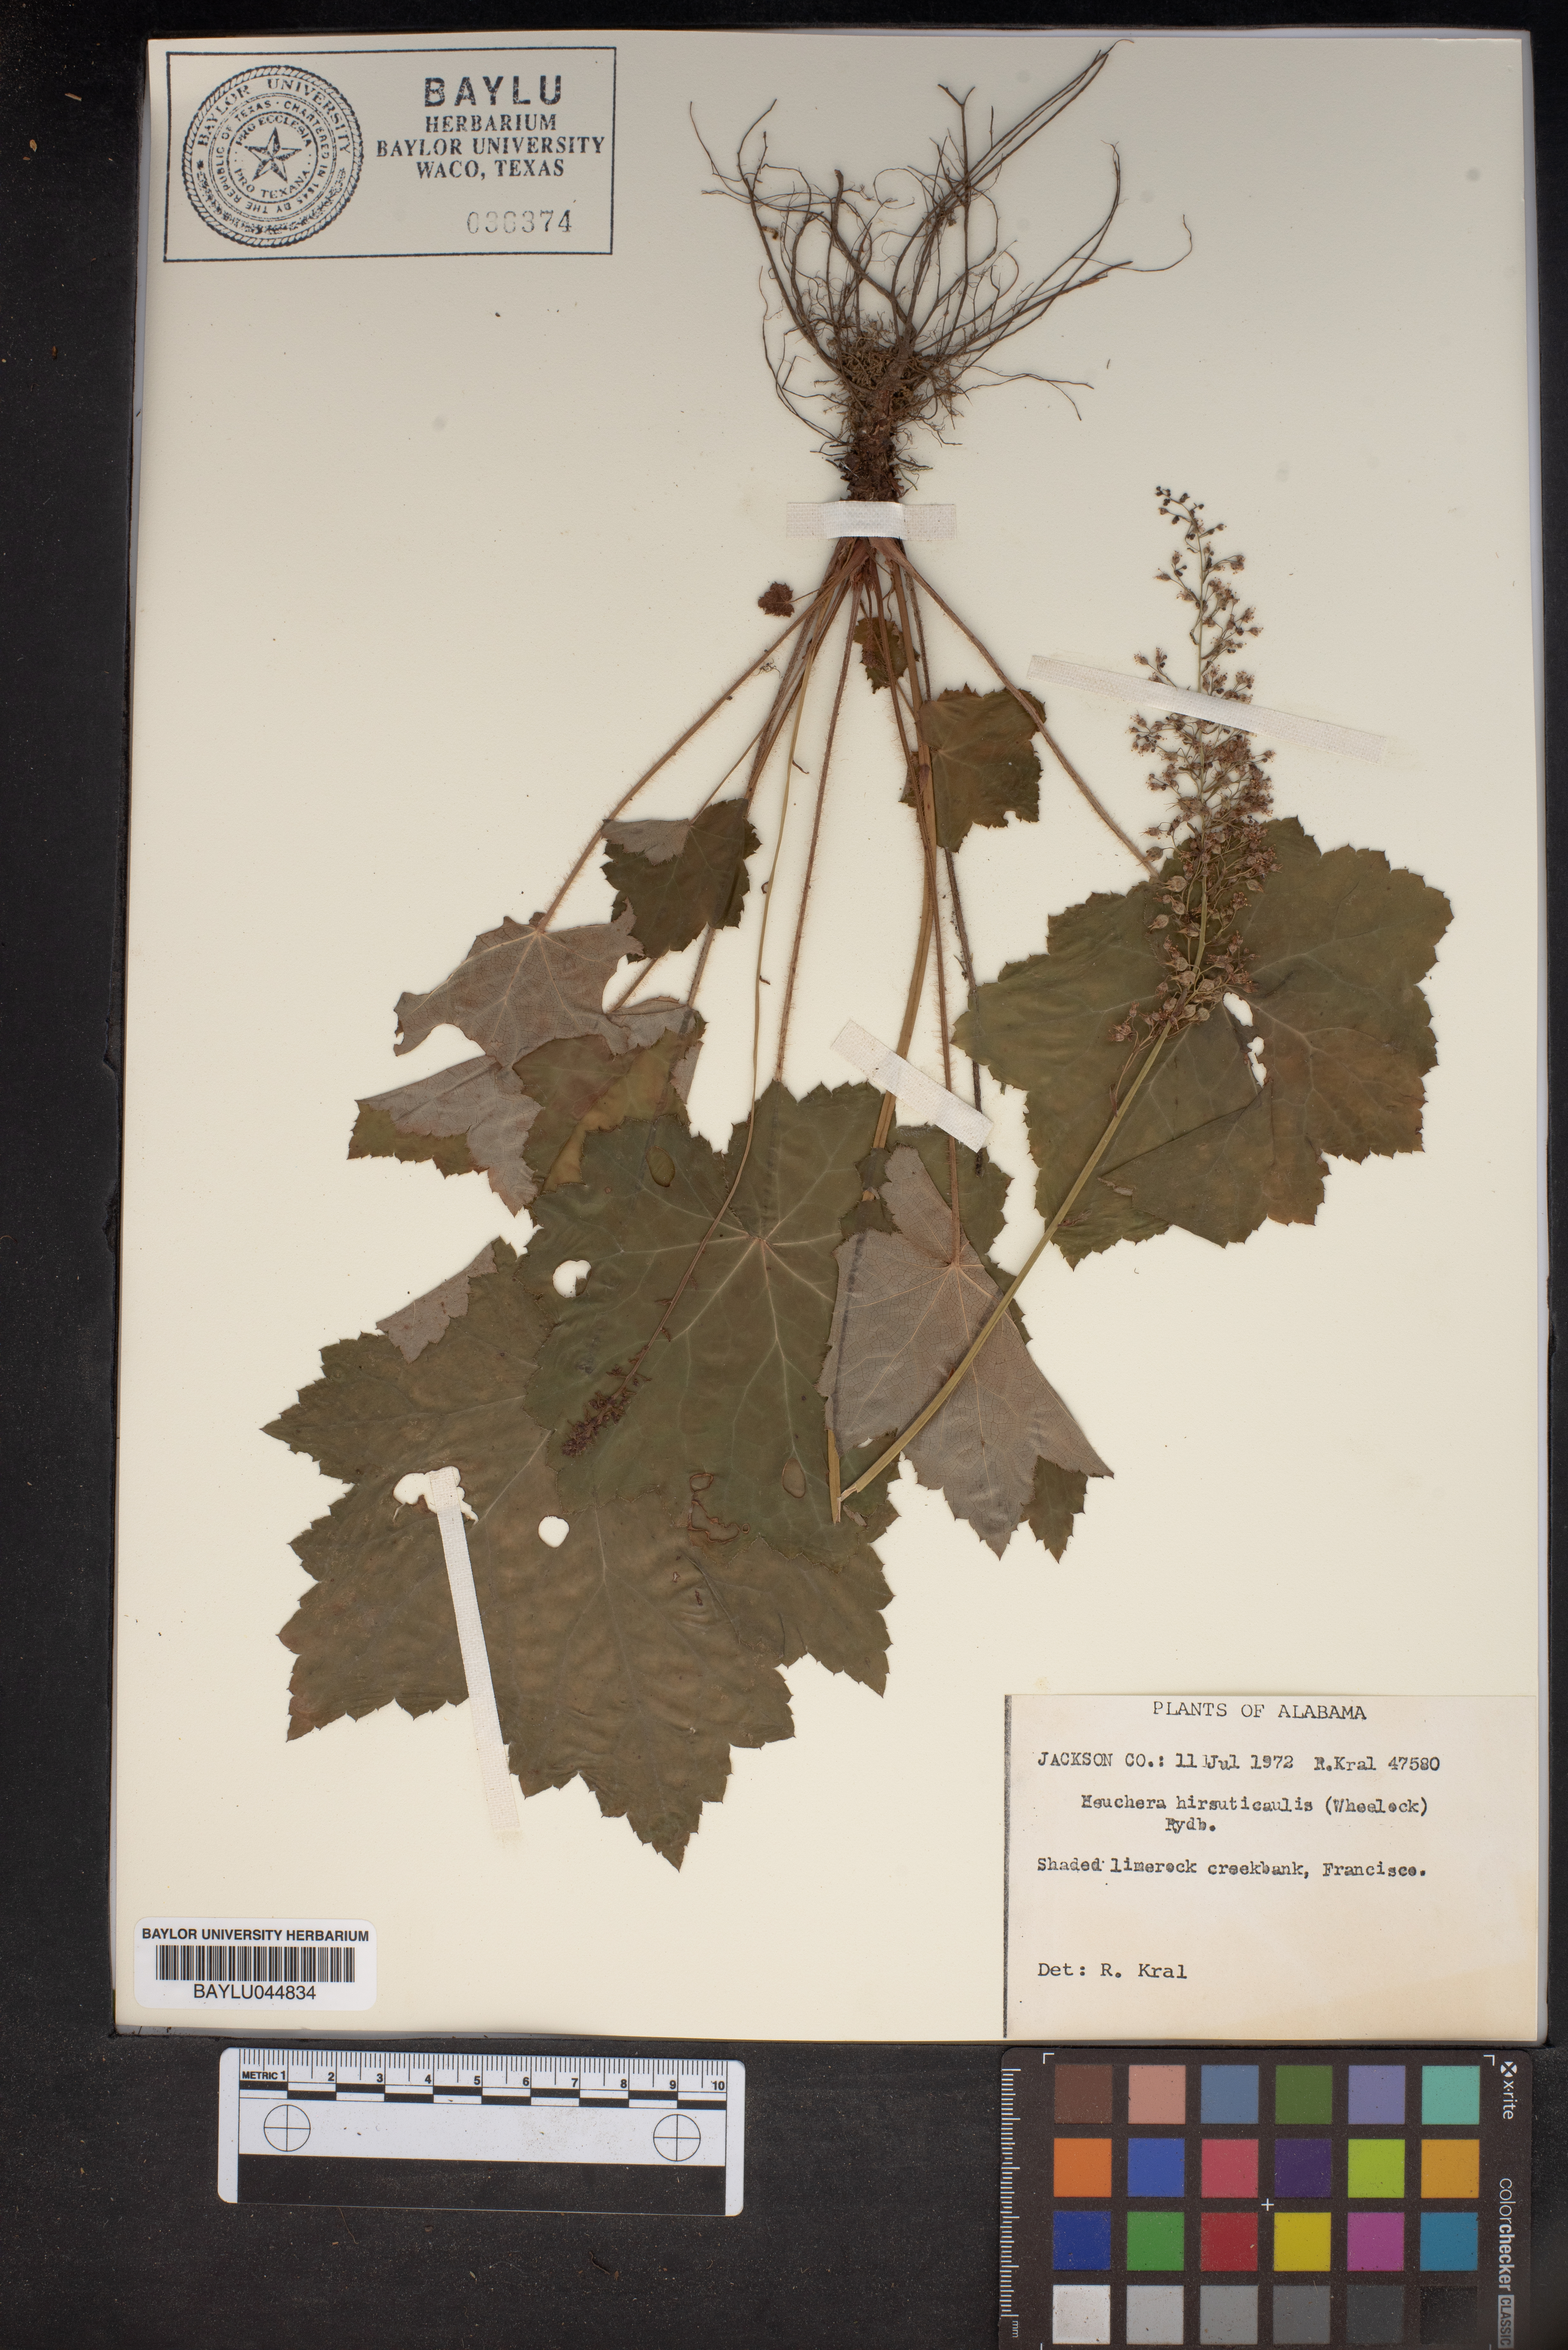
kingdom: Plantae
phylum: Tracheophyta
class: Magnoliopsida
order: Saxifragales
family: Saxifragaceae
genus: Heuchera
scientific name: Heuchera americana
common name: Alumroot
